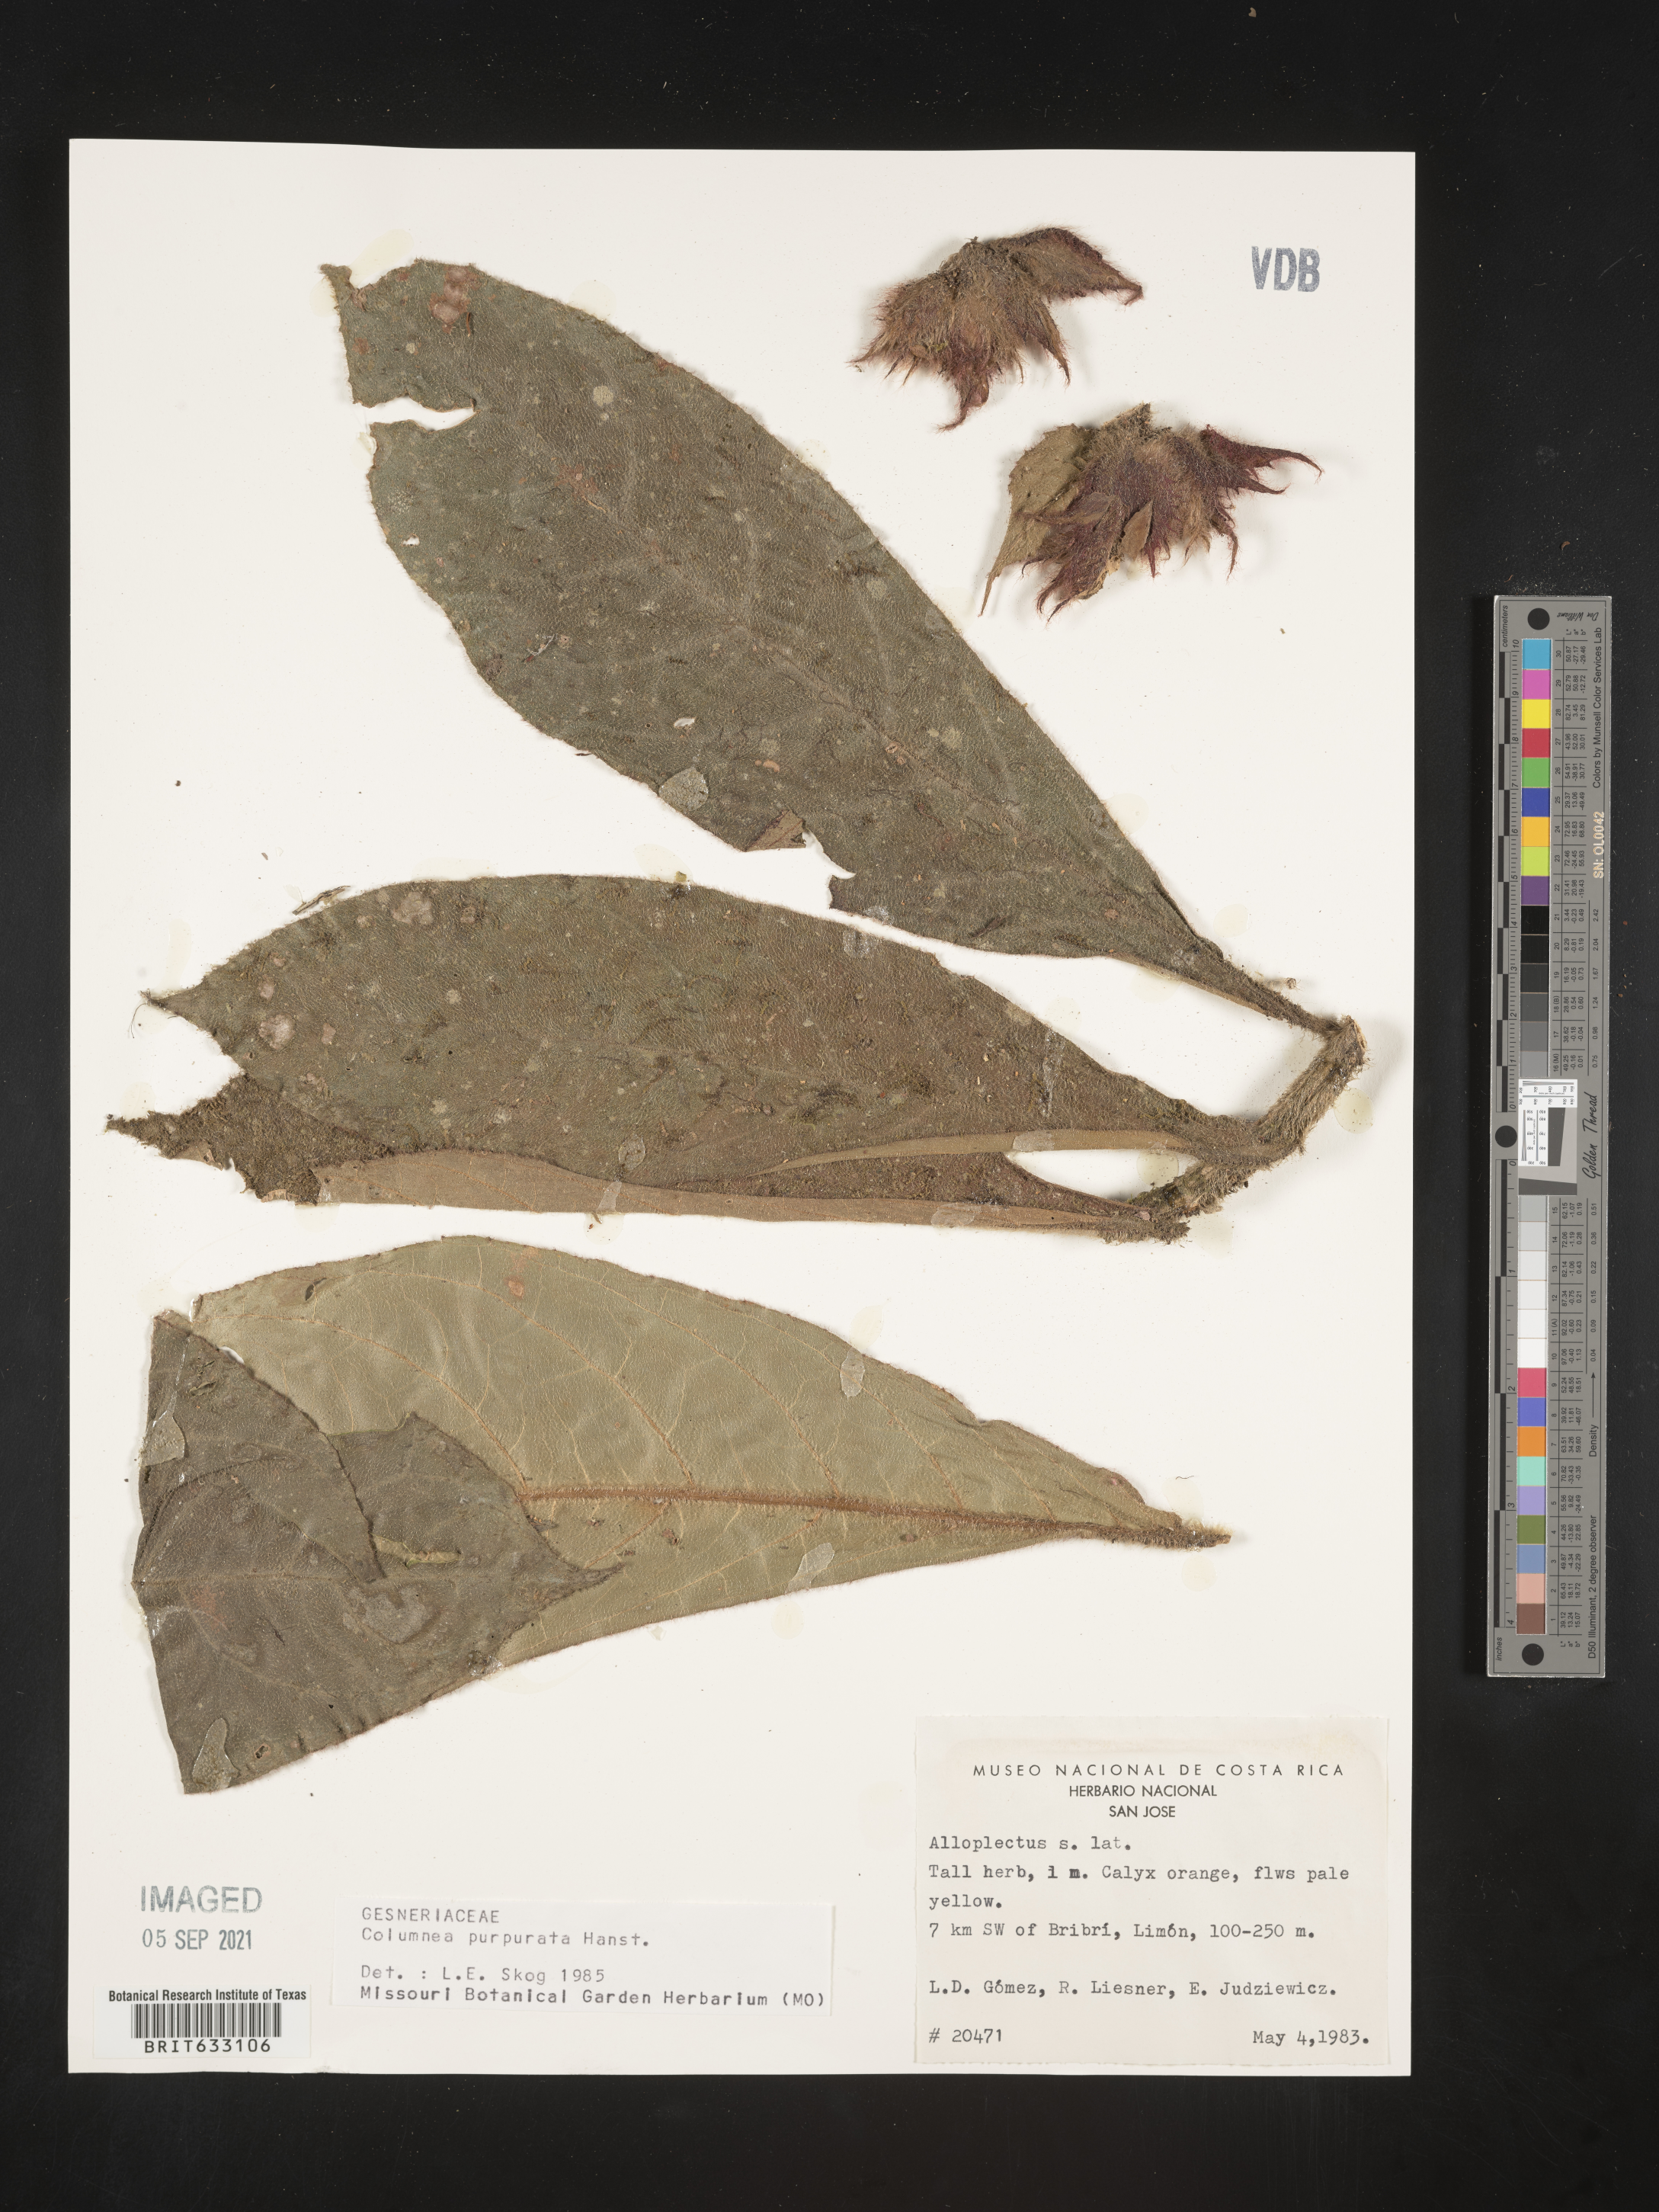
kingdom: Plantae
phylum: Tracheophyta
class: Magnoliopsida
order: Lamiales
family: Gesneriaceae
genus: Columnea
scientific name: Columnea
